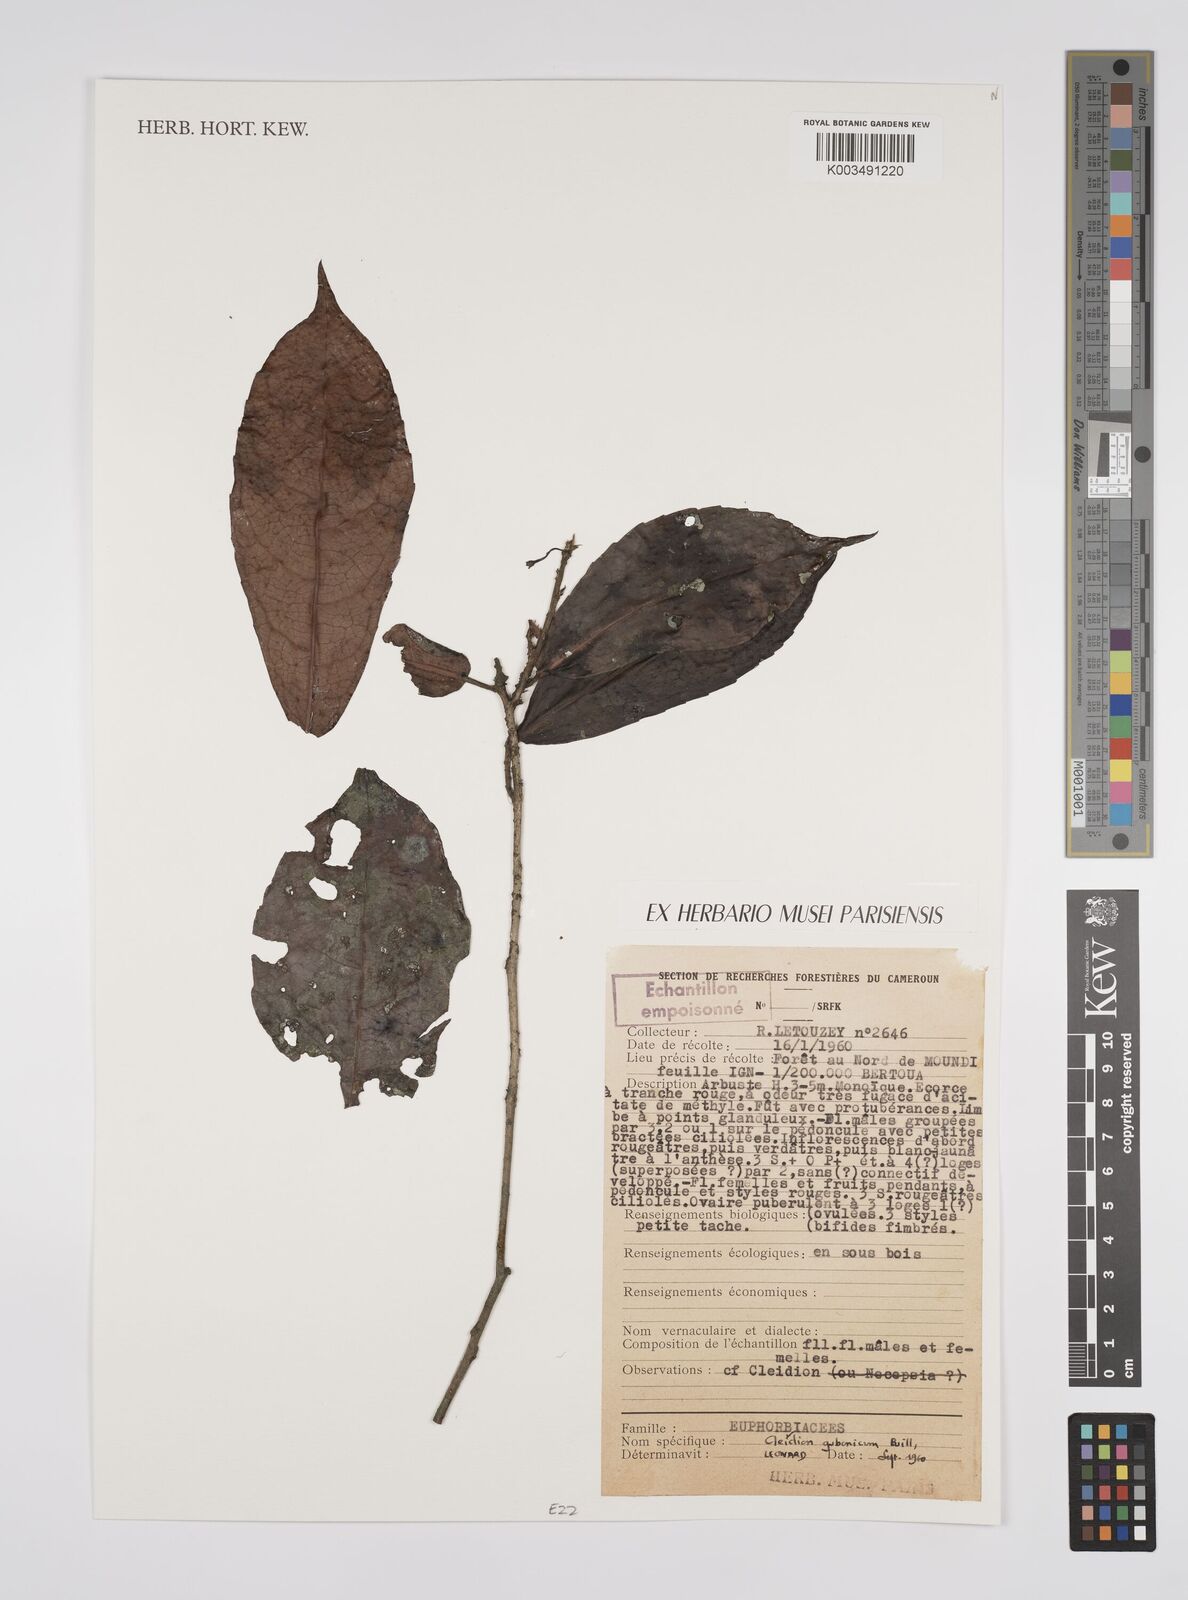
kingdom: Plantae
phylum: Tracheophyta
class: Magnoliopsida
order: Malpighiales
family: Euphorbiaceae
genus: Cleidion
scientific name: Cleidion gabonicum
